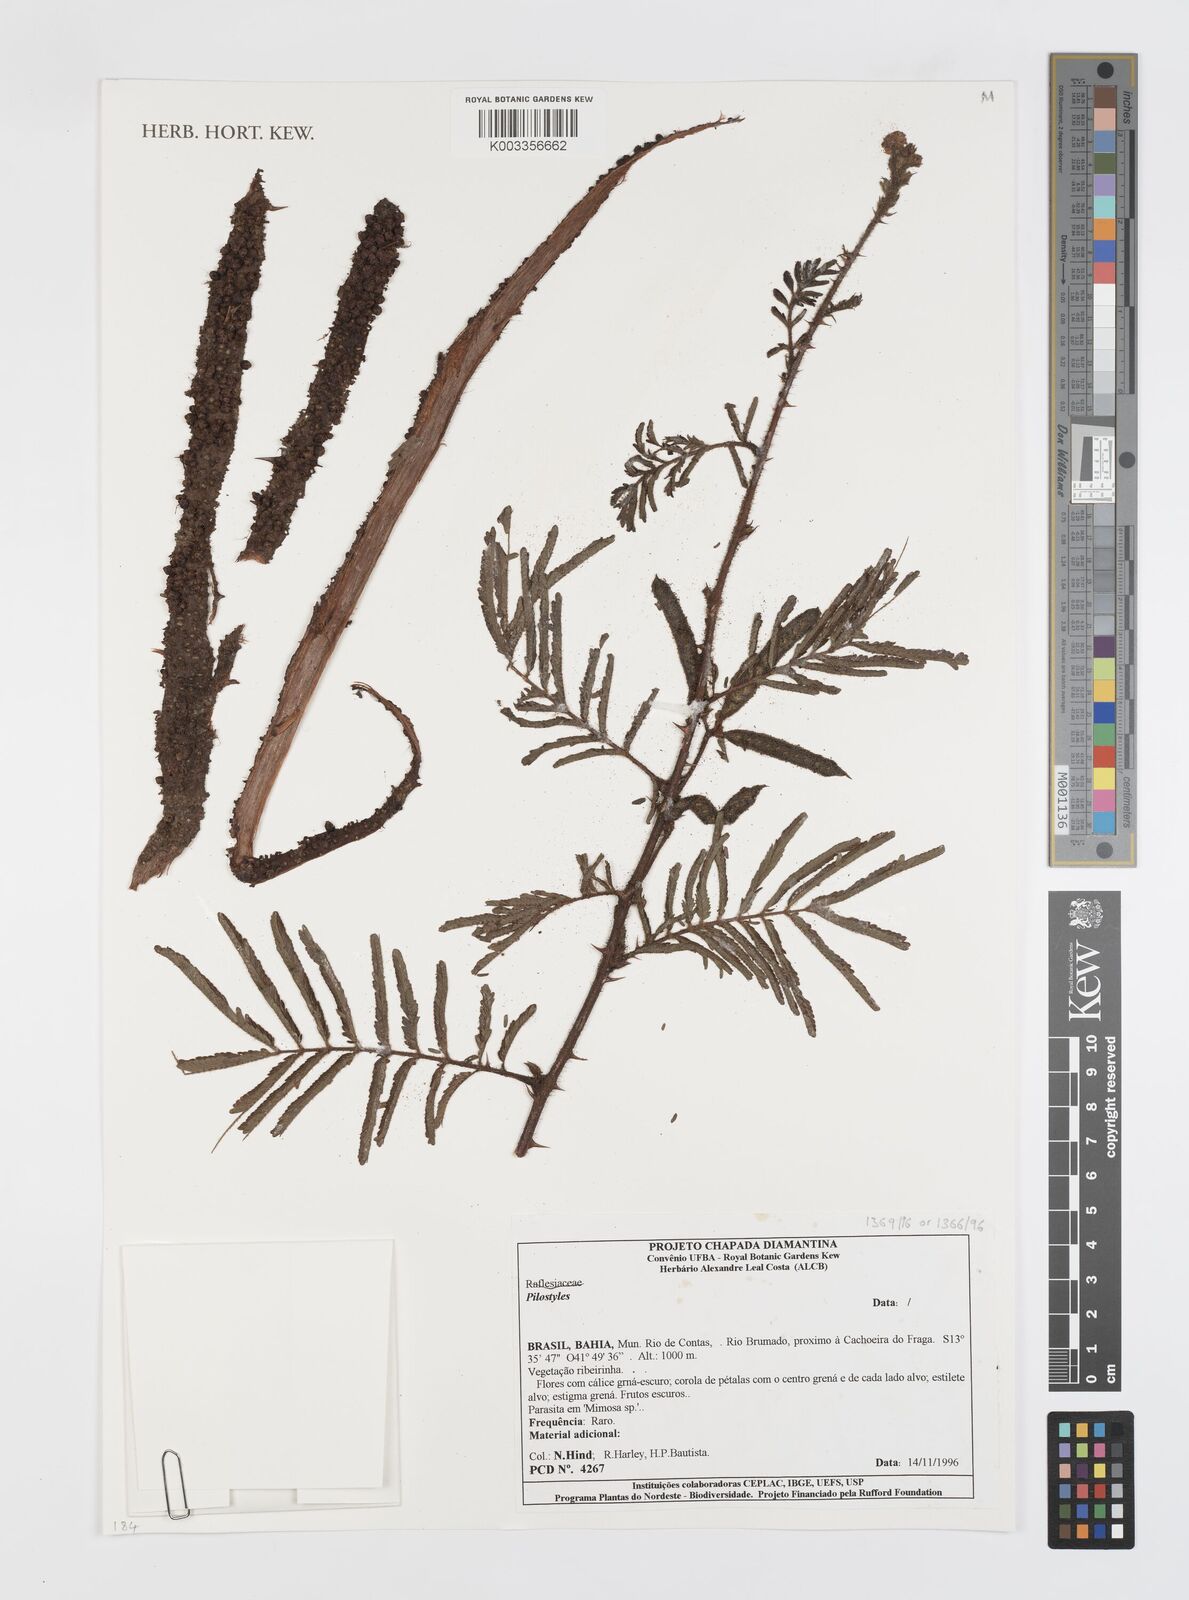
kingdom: Plantae
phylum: Tracheophyta
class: Magnoliopsida
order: Cucurbitales
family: Apodanthaceae
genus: Pilostyles
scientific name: Pilostyles
